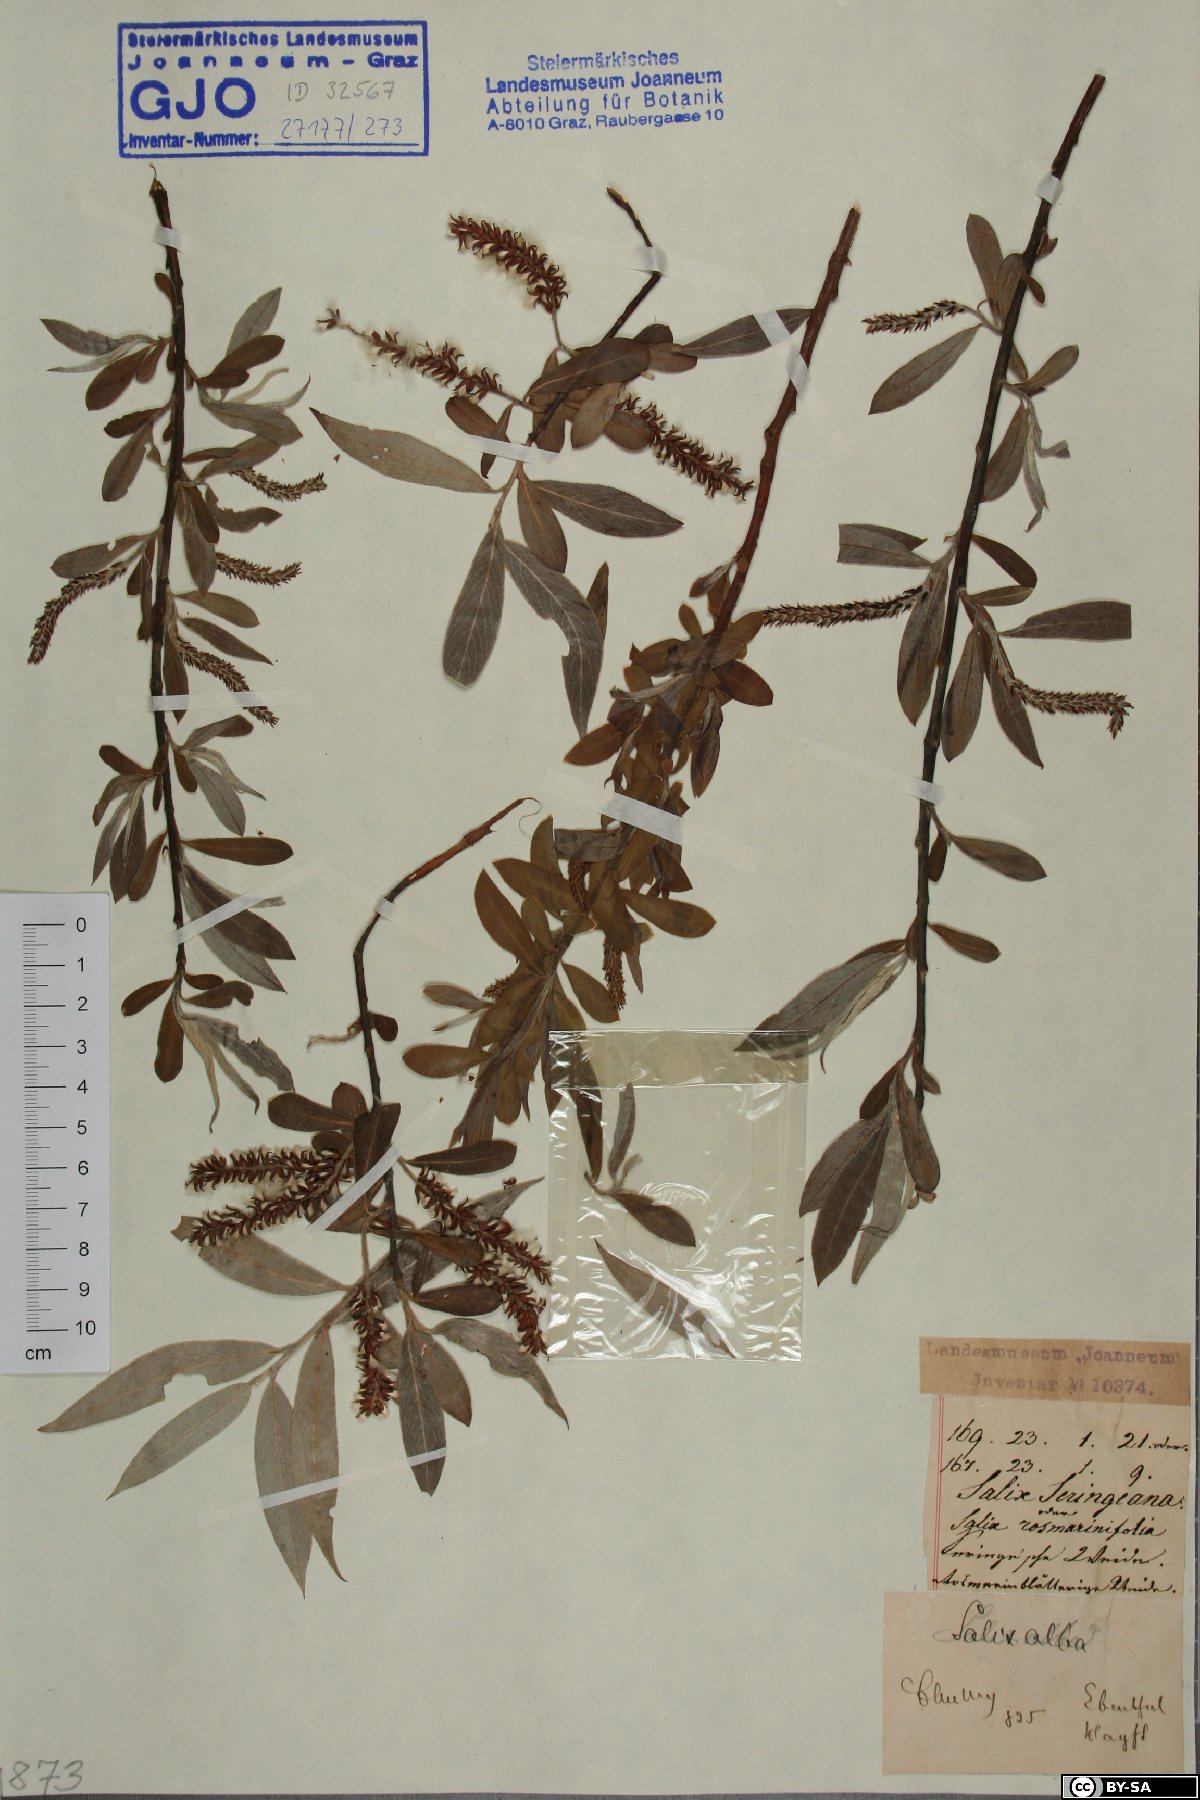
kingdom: Plantae
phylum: Tracheophyta
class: Magnoliopsida
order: Malpighiales
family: Salicaceae
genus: Salix
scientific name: Salix alba
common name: White willow
